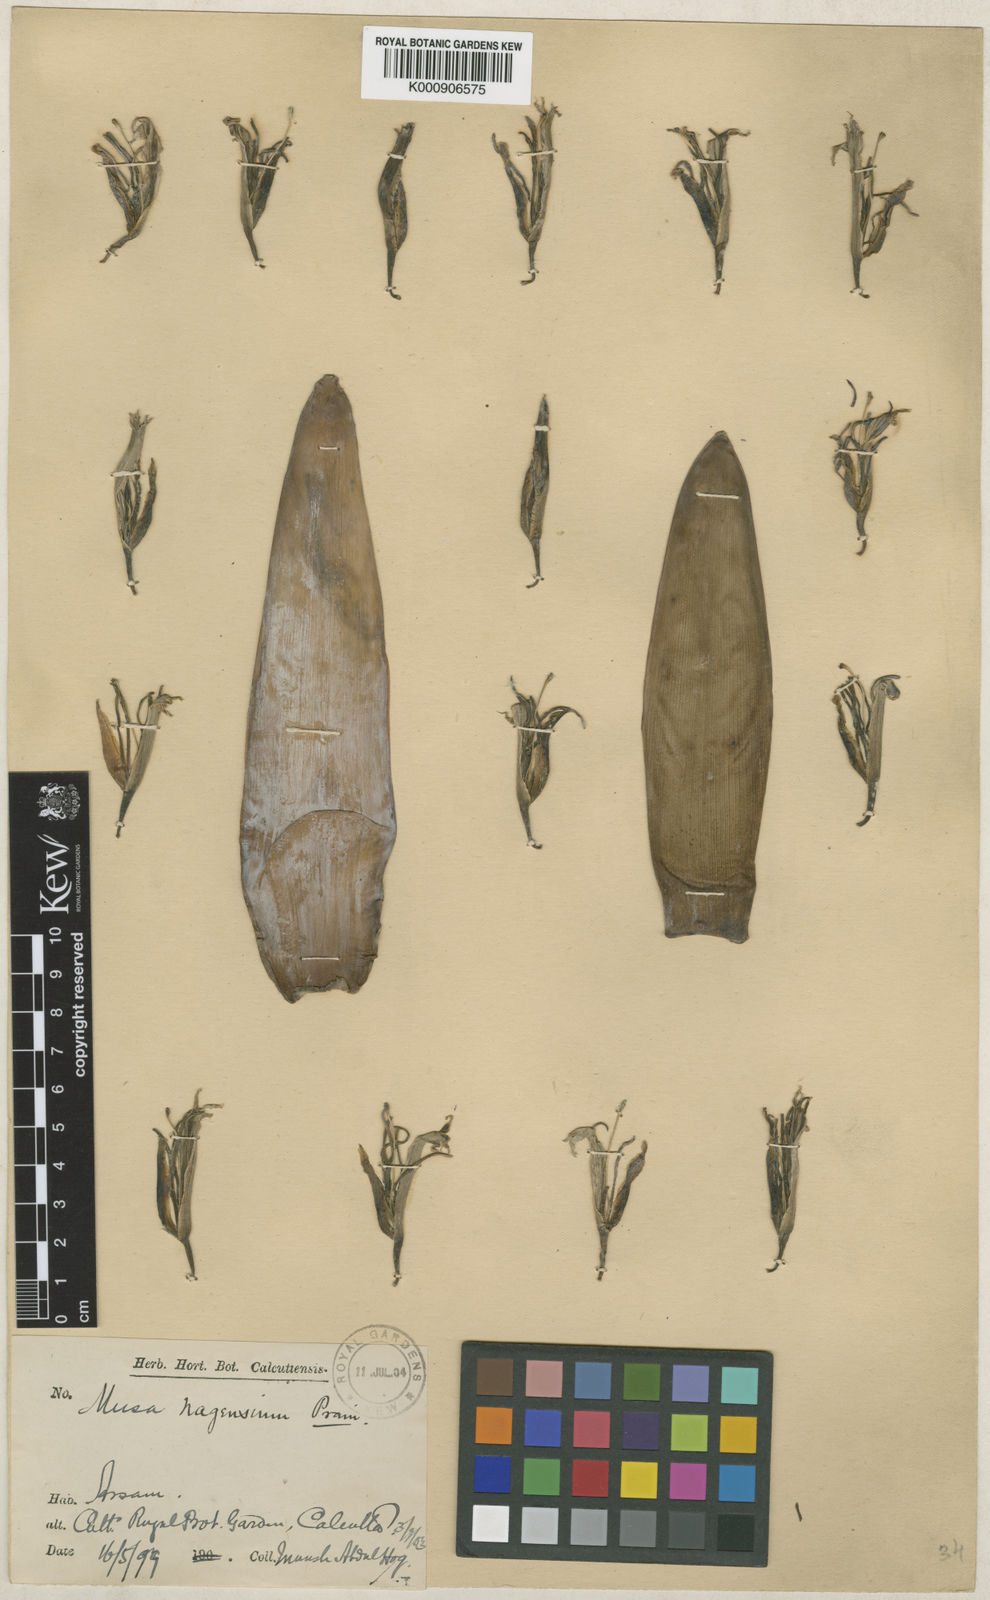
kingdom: Plantae
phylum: Tracheophyta
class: Liliopsida
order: Zingiberales
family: Musaceae
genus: Musa
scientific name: Musa nagensium
